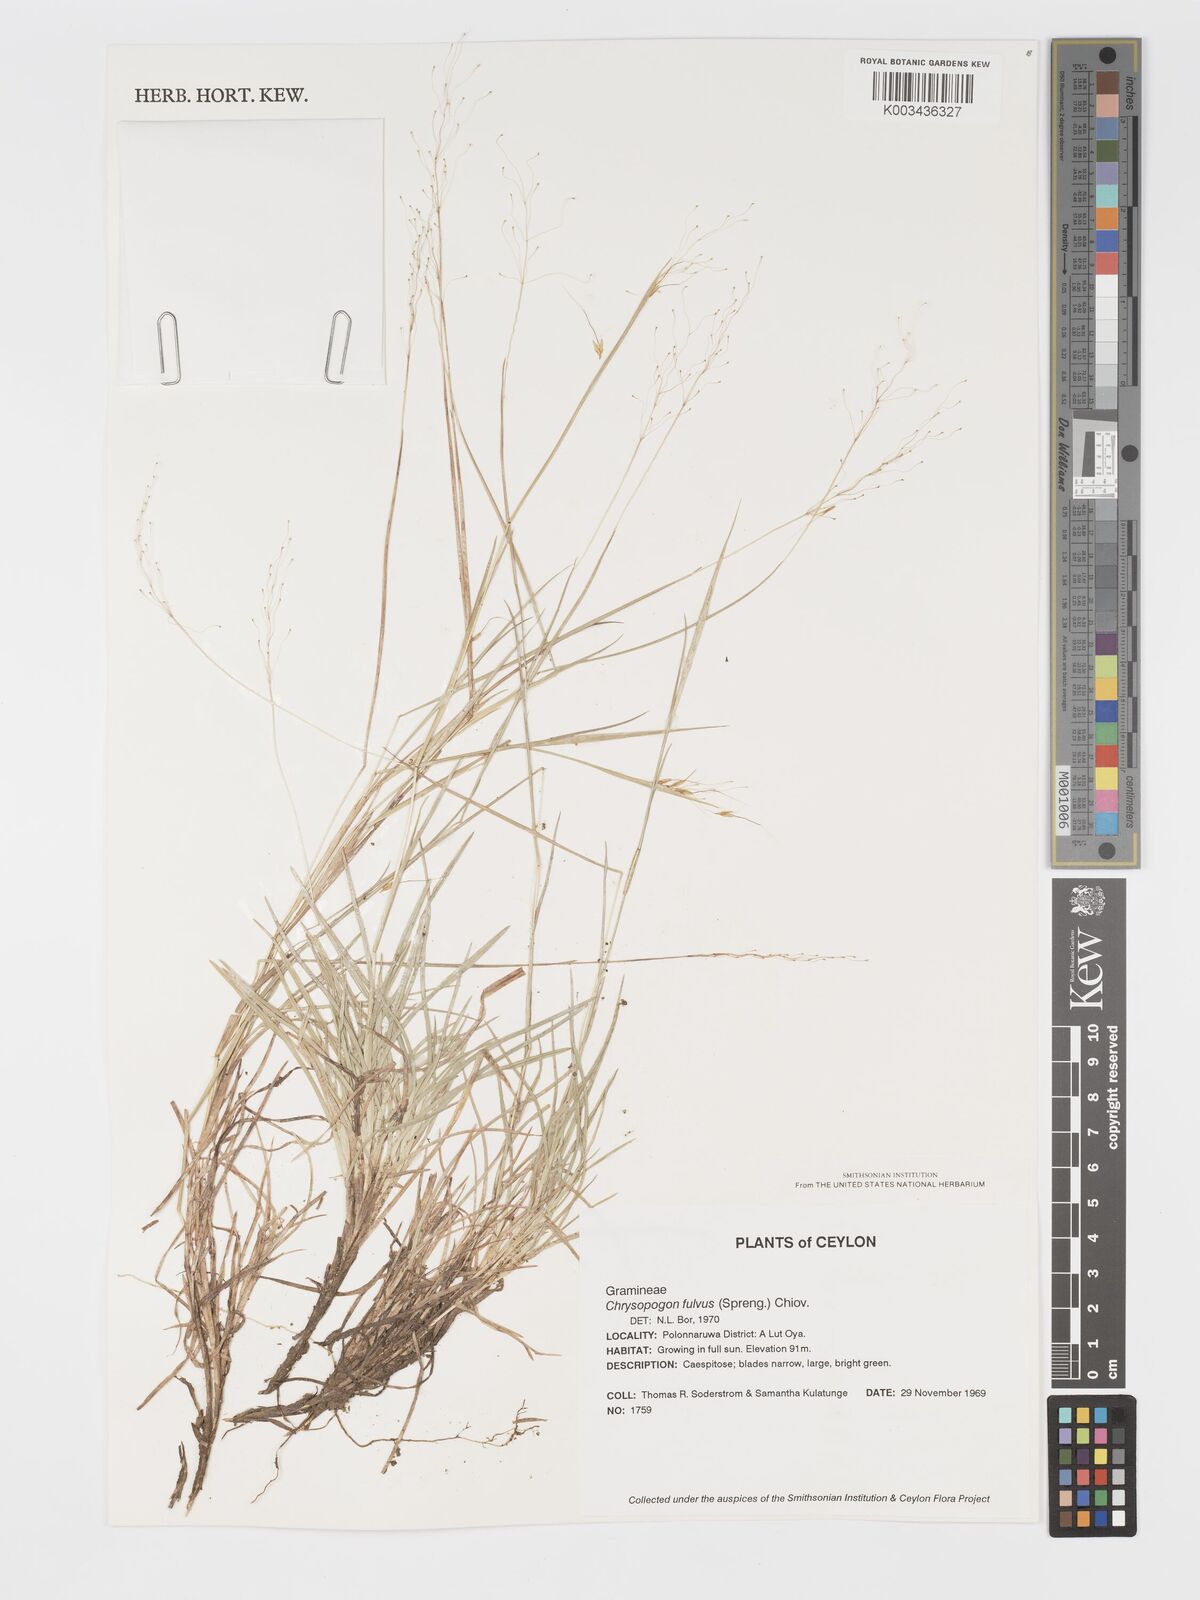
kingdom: Plantae
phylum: Tracheophyta
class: Liliopsida
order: Poales
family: Poaceae
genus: Chrysopogon
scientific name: Chrysopogon fulvus
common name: Red false beardgrass
